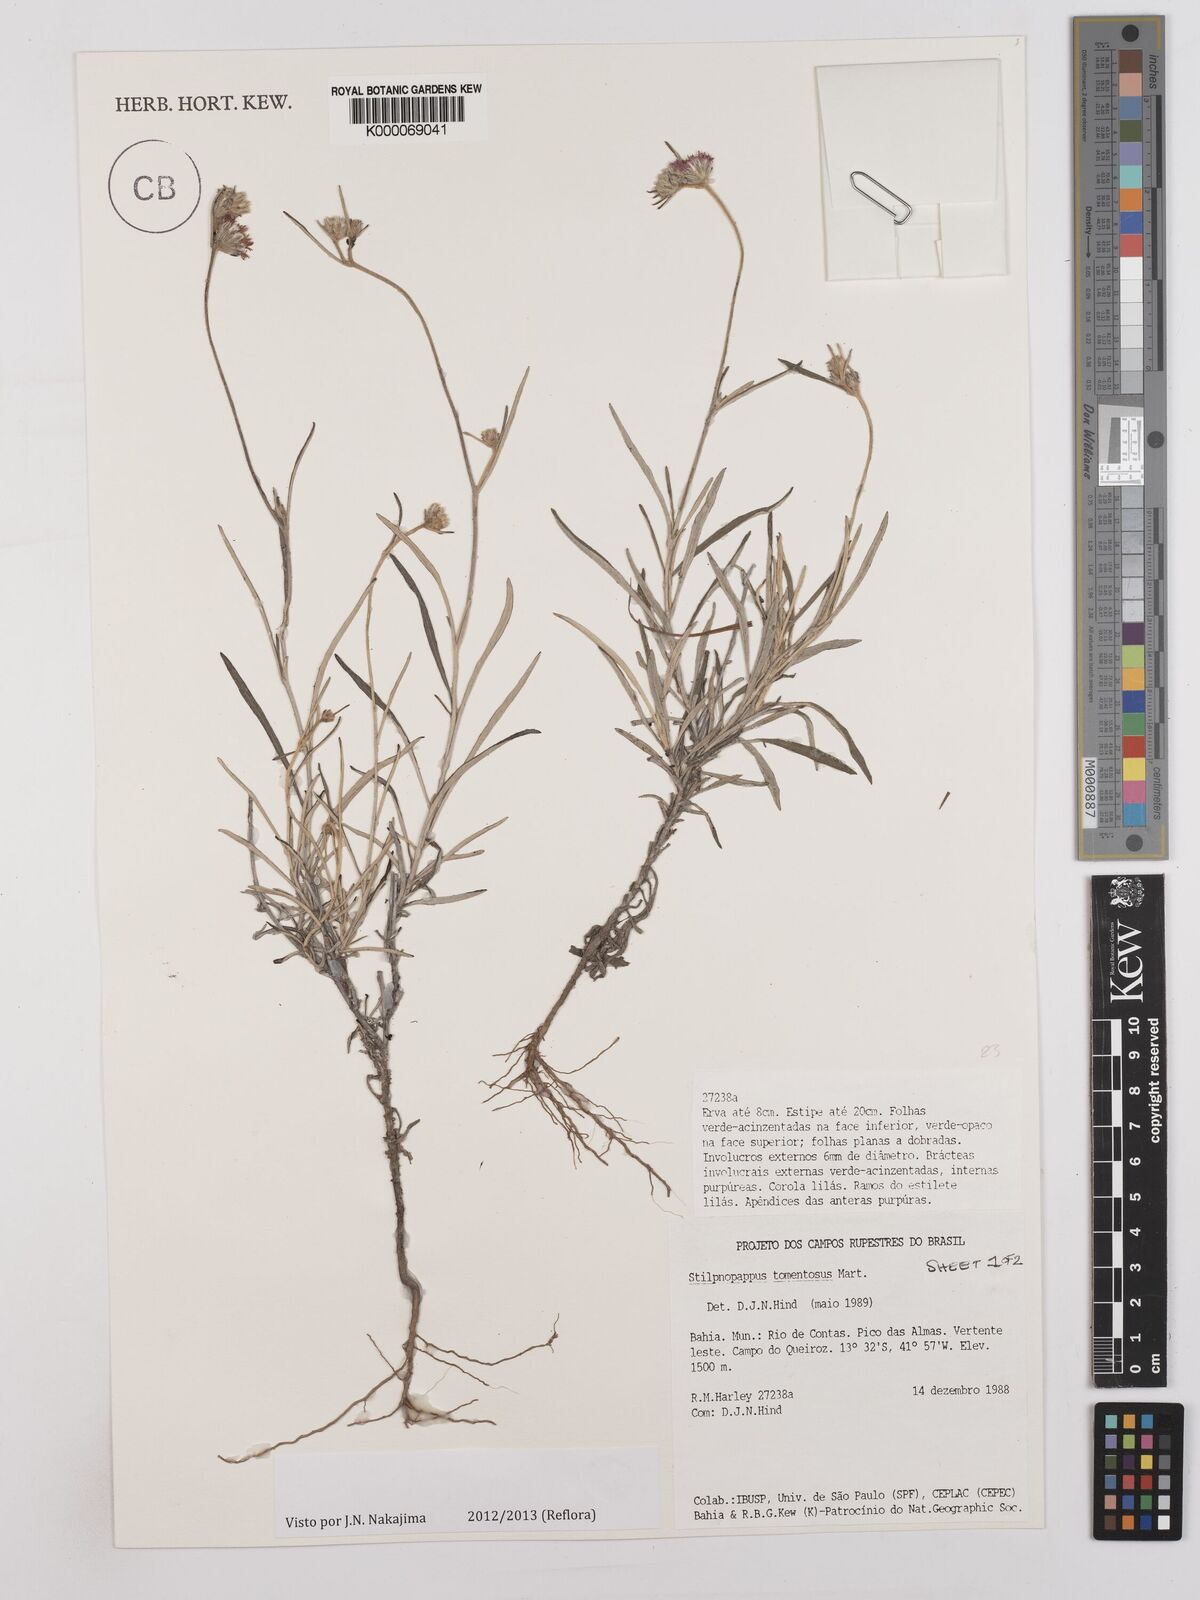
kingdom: Plantae
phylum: Tracheophyta
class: Magnoliopsida
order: Asterales
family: Asteraceae
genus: Stilpnopappus
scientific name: Stilpnopappus tomentosus
